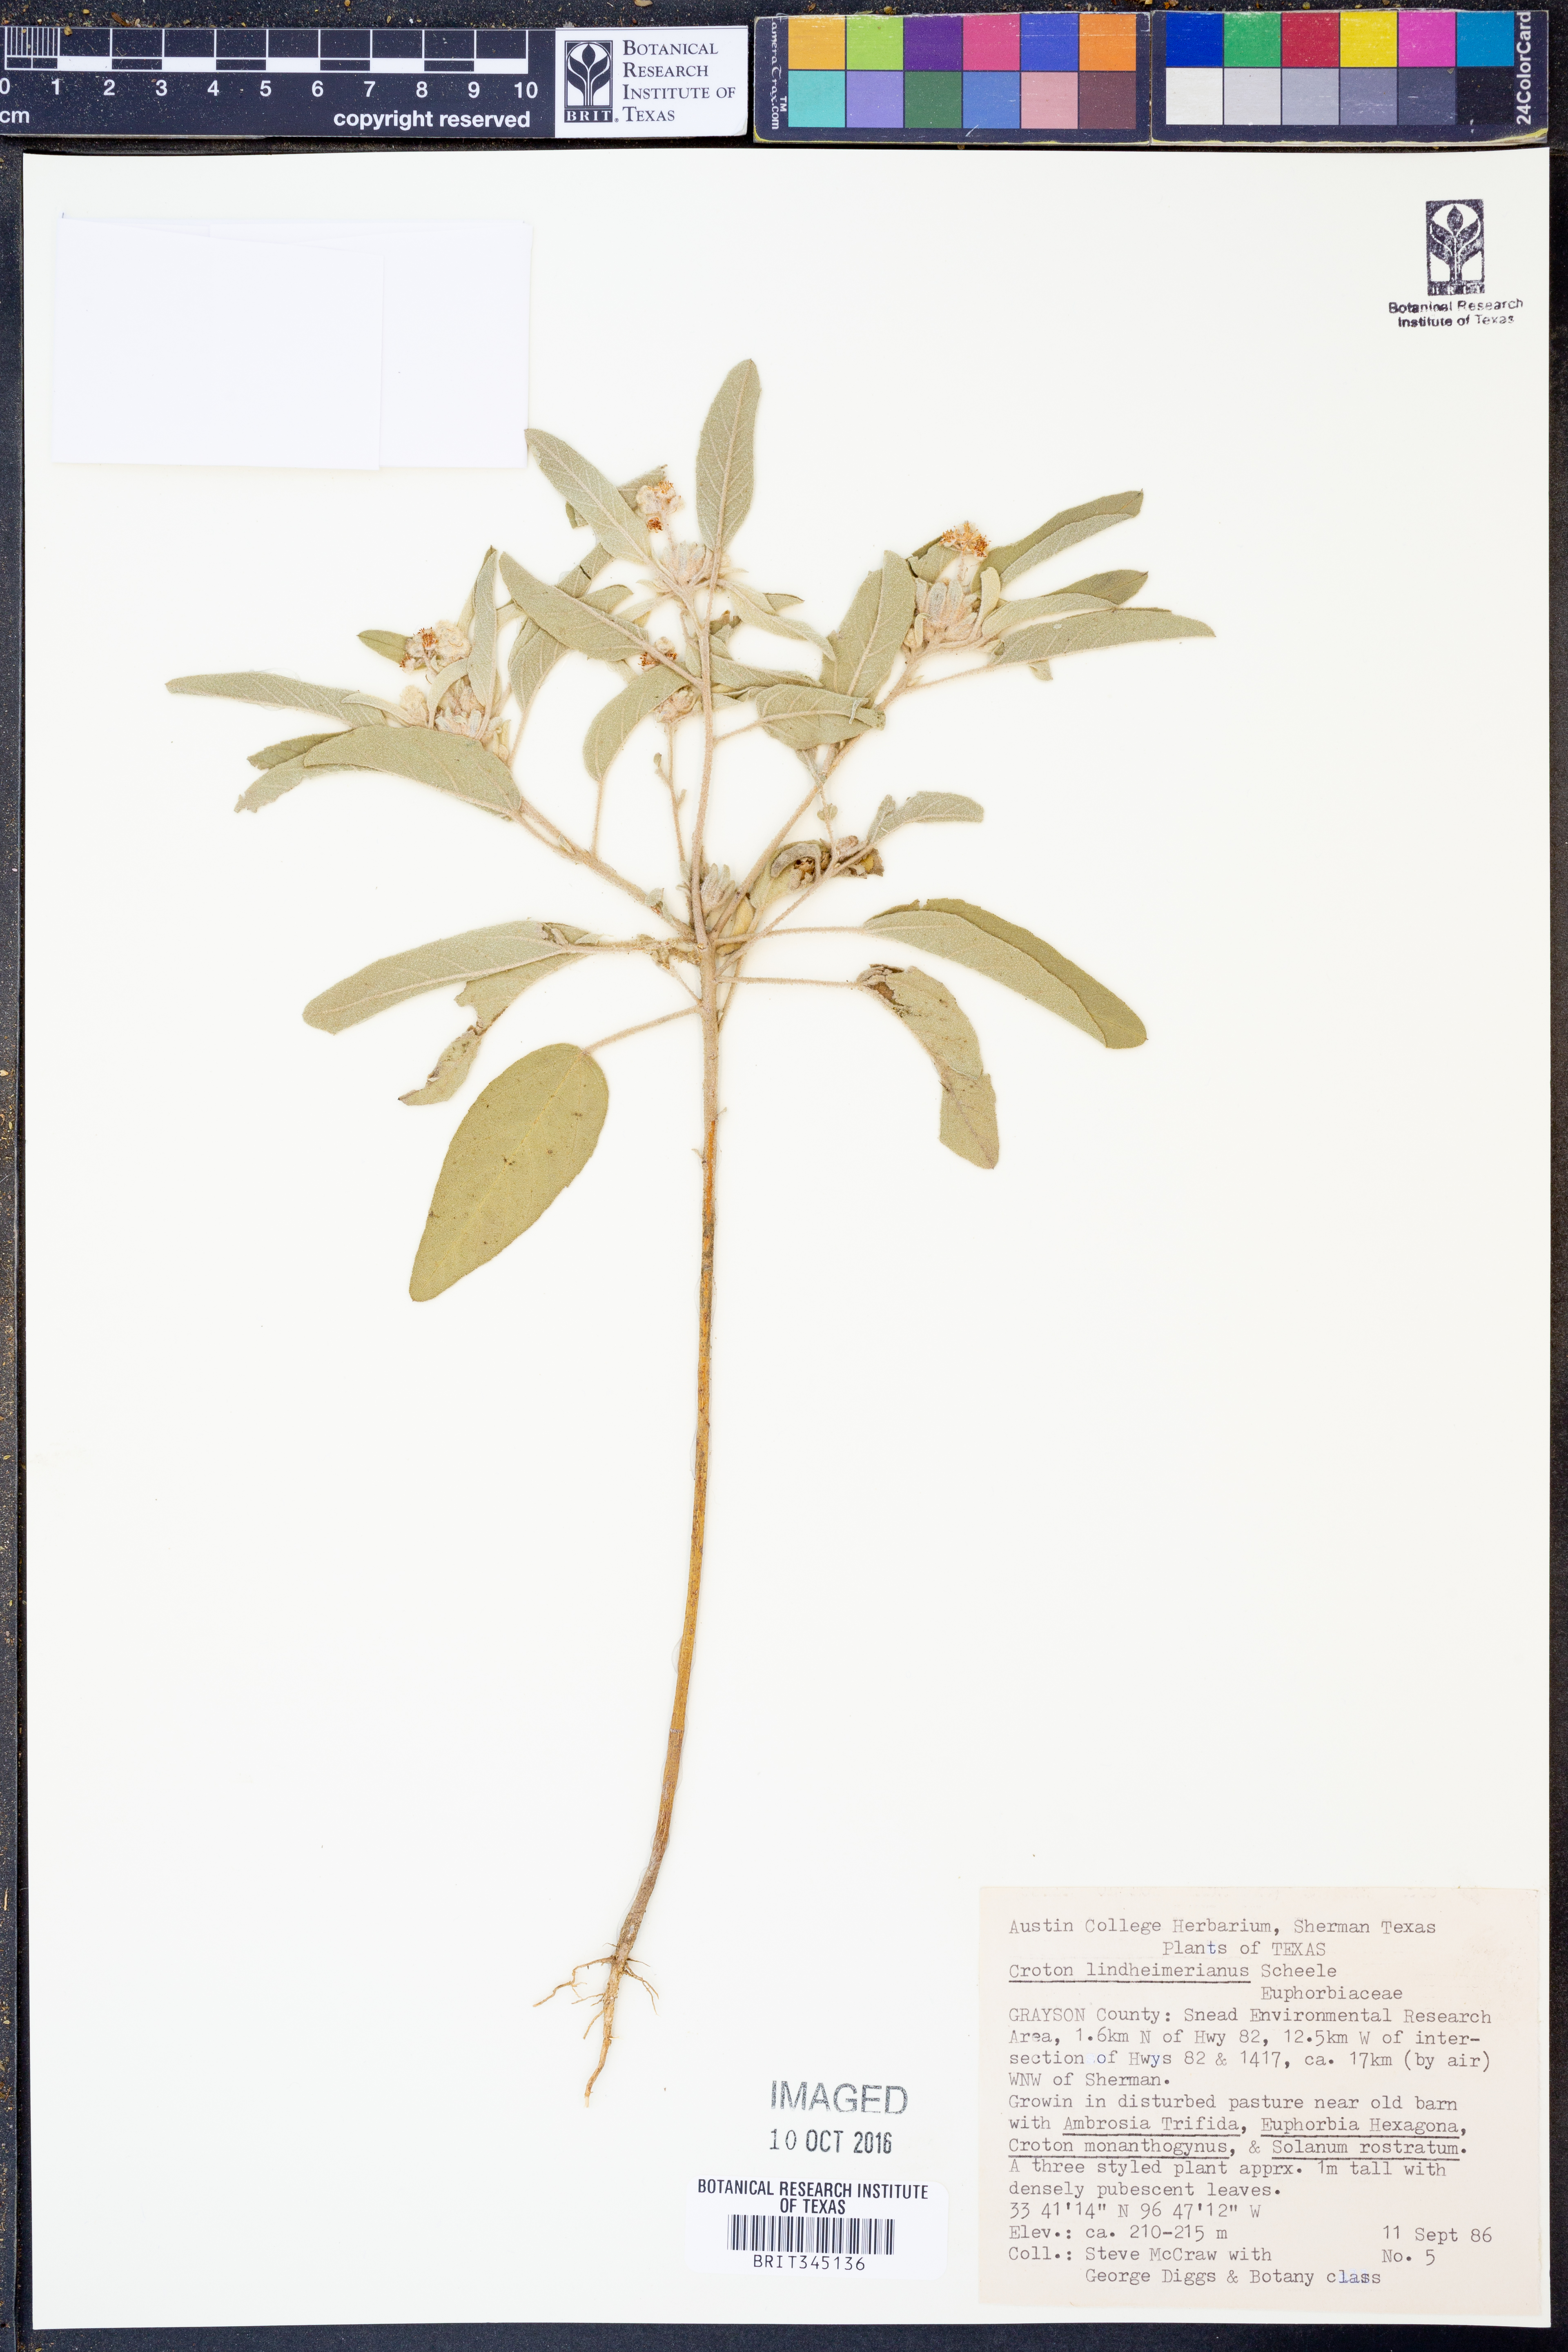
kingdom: Plantae
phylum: Tracheophyta
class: Magnoliopsida
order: Malpighiales
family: Euphorbiaceae
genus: Croton
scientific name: Croton lindheimerianus
